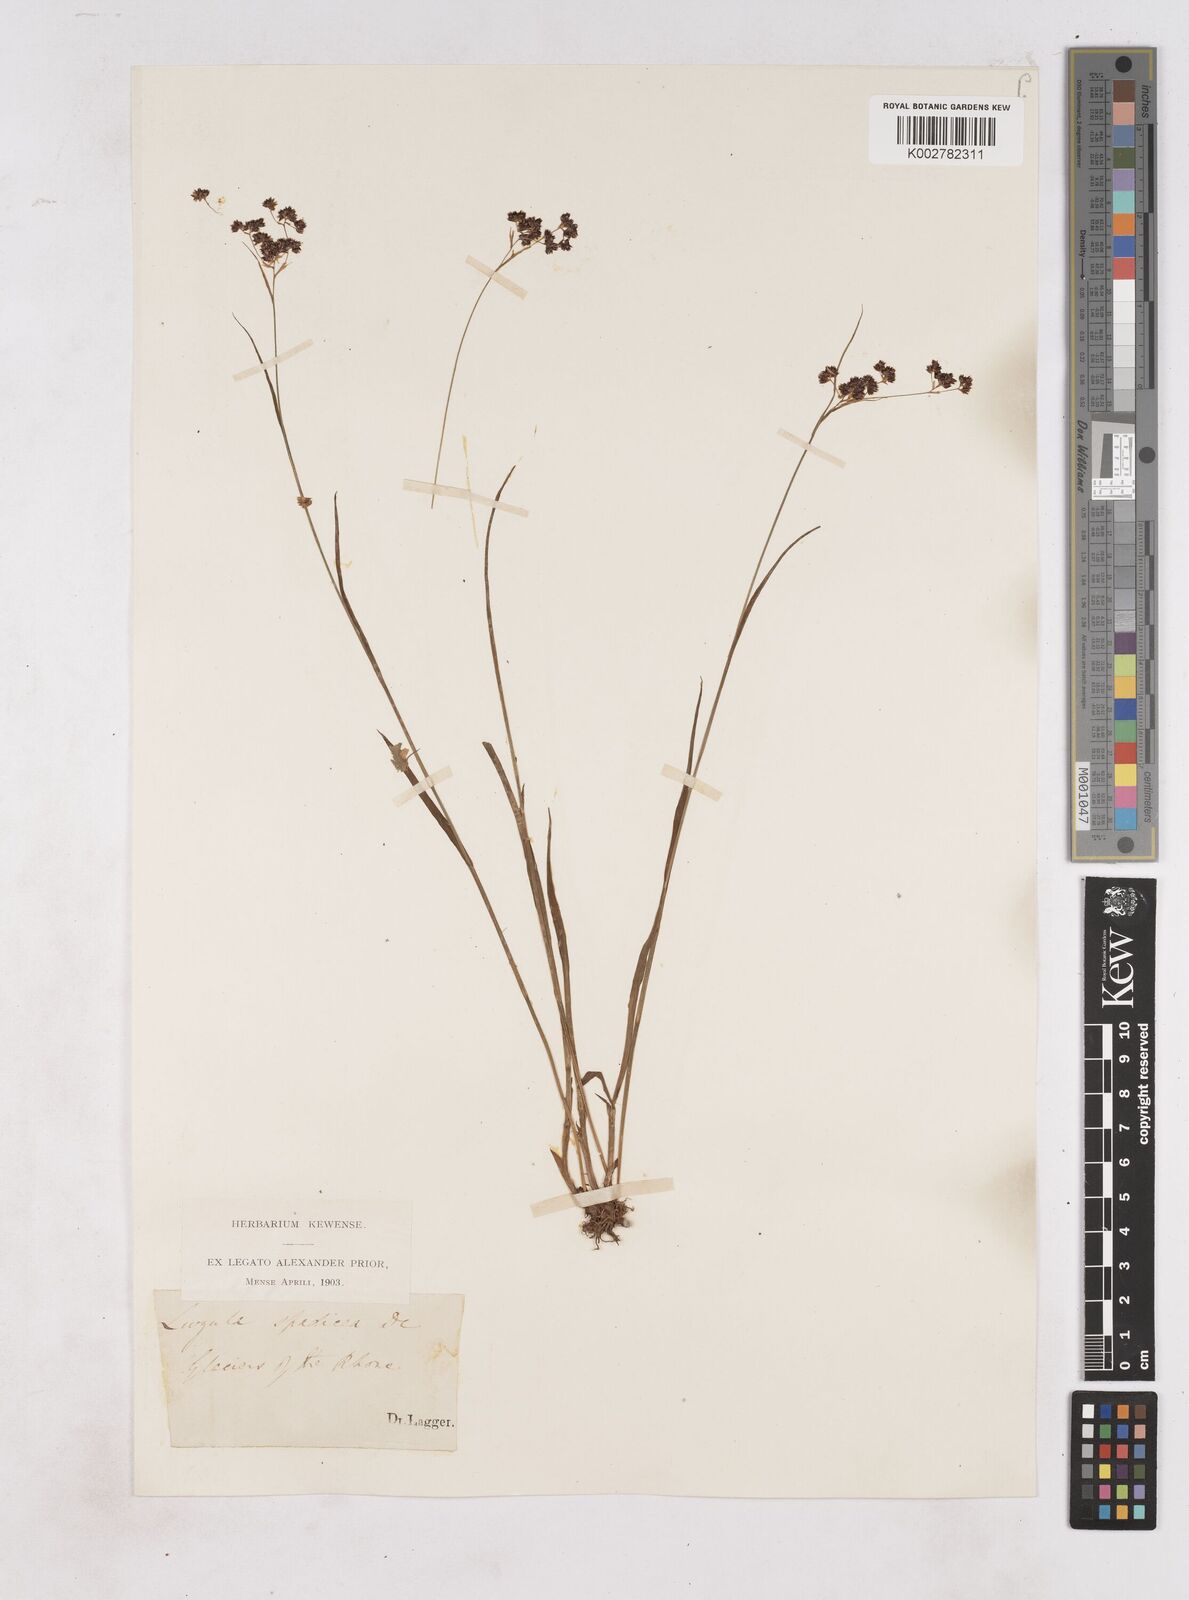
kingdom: Plantae
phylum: Tracheophyta
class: Liliopsida
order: Poales
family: Juncaceae
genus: Luzula
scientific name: Luzula alpinopilosa
